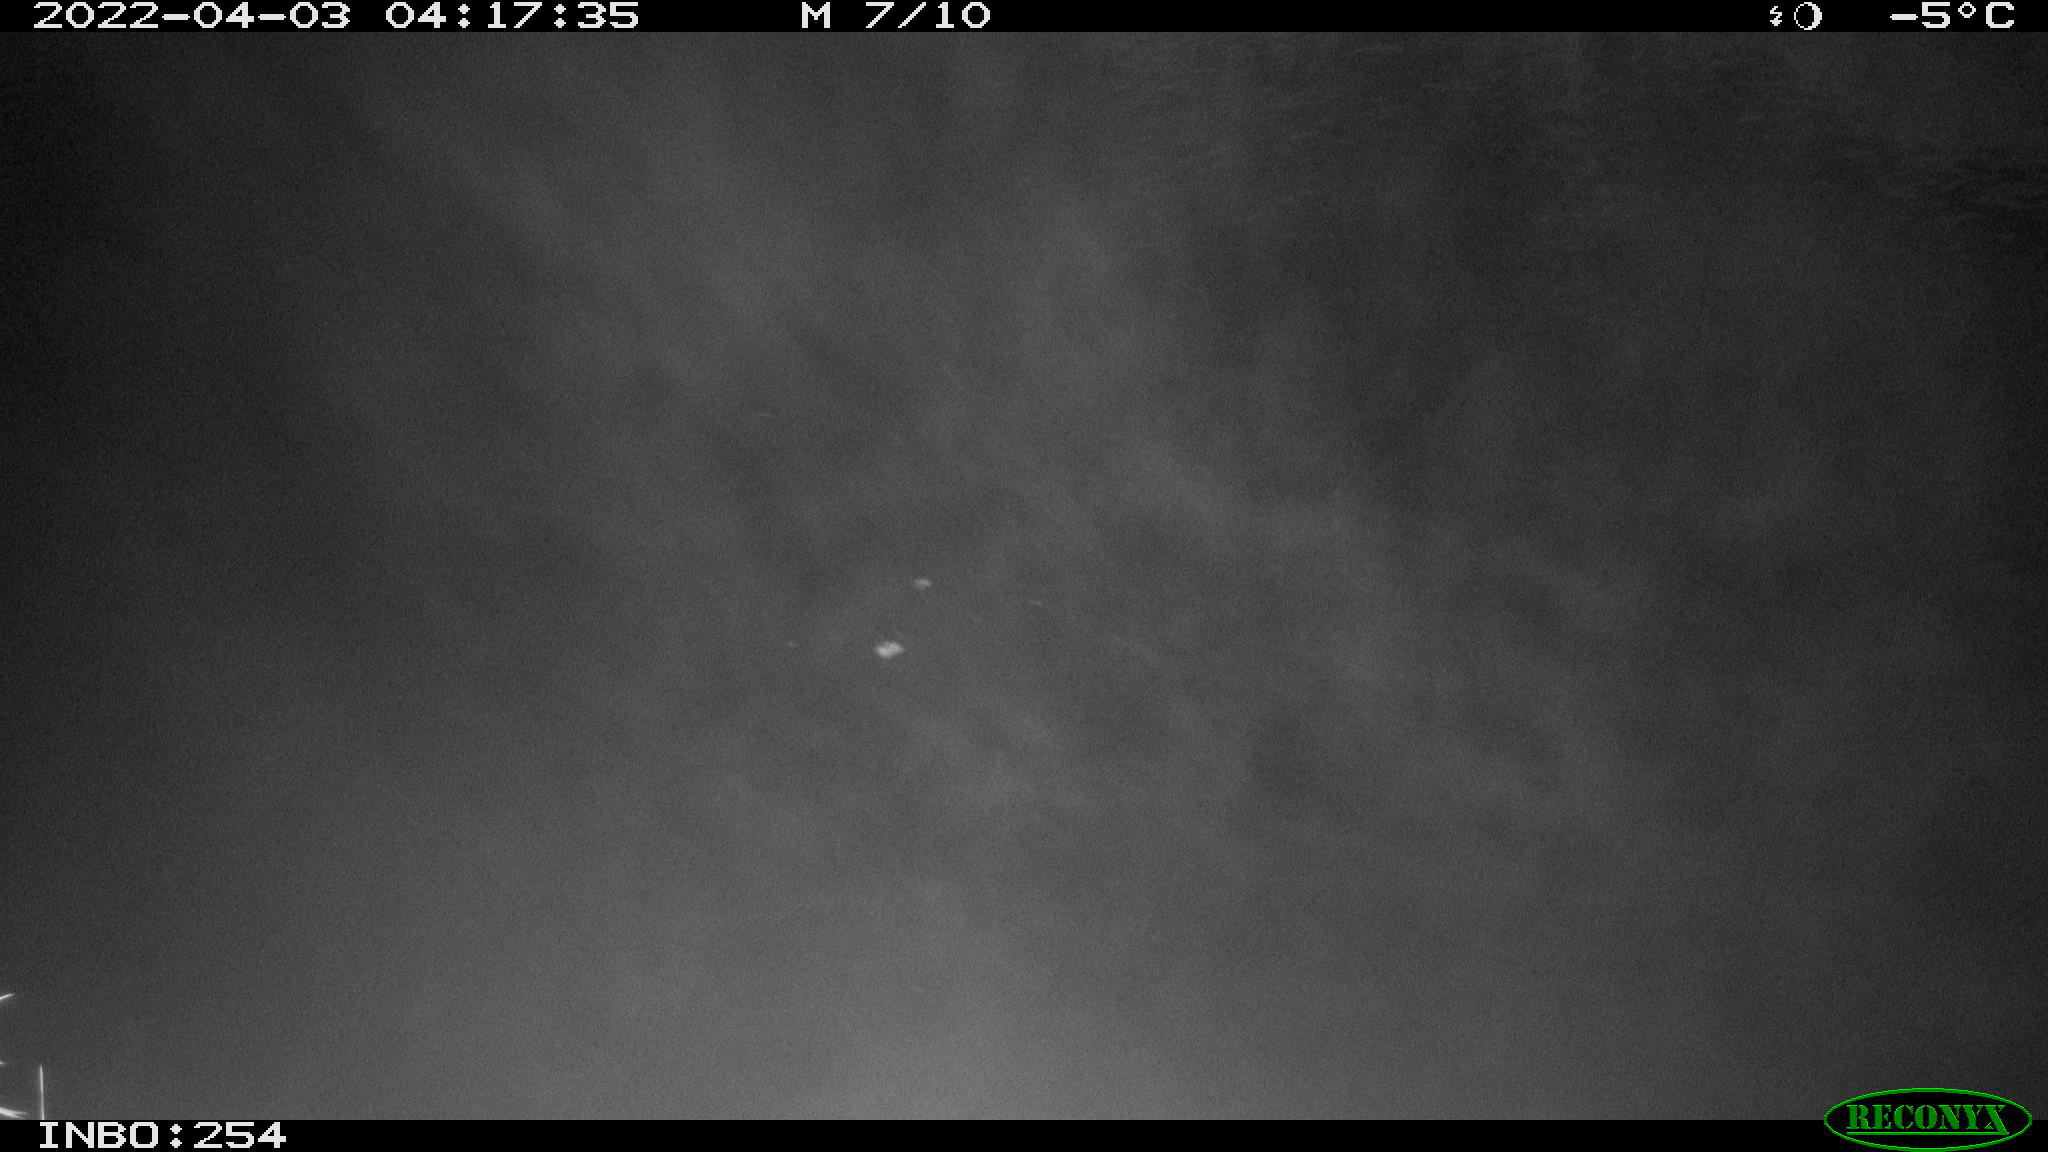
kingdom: Animalia
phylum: Chordata
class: Aves
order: Anseriformes
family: Anatidae
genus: Anas
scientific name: Anas platyrhynchos
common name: Mallard
